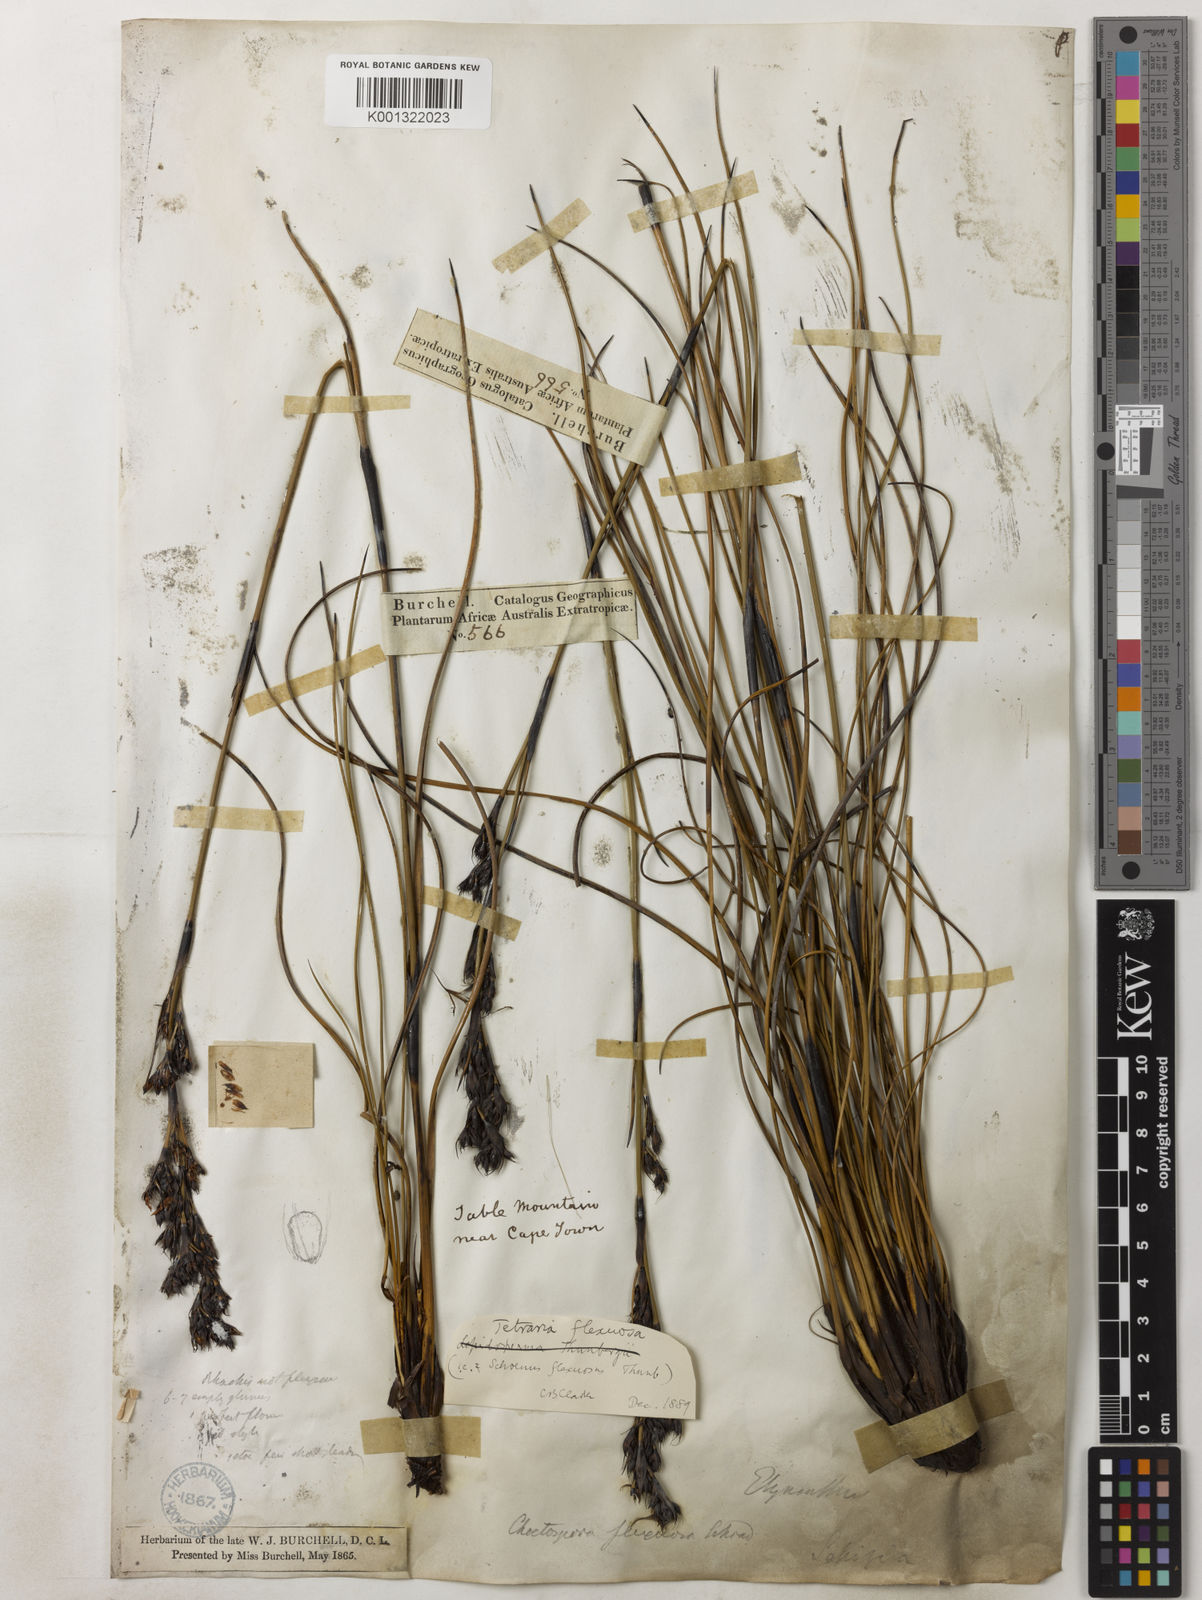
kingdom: Plantae
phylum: Tracheophyta
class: Liliopsida
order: Poales
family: Cyperaceae
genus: Tetraria
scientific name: Tetraria flexuosa
